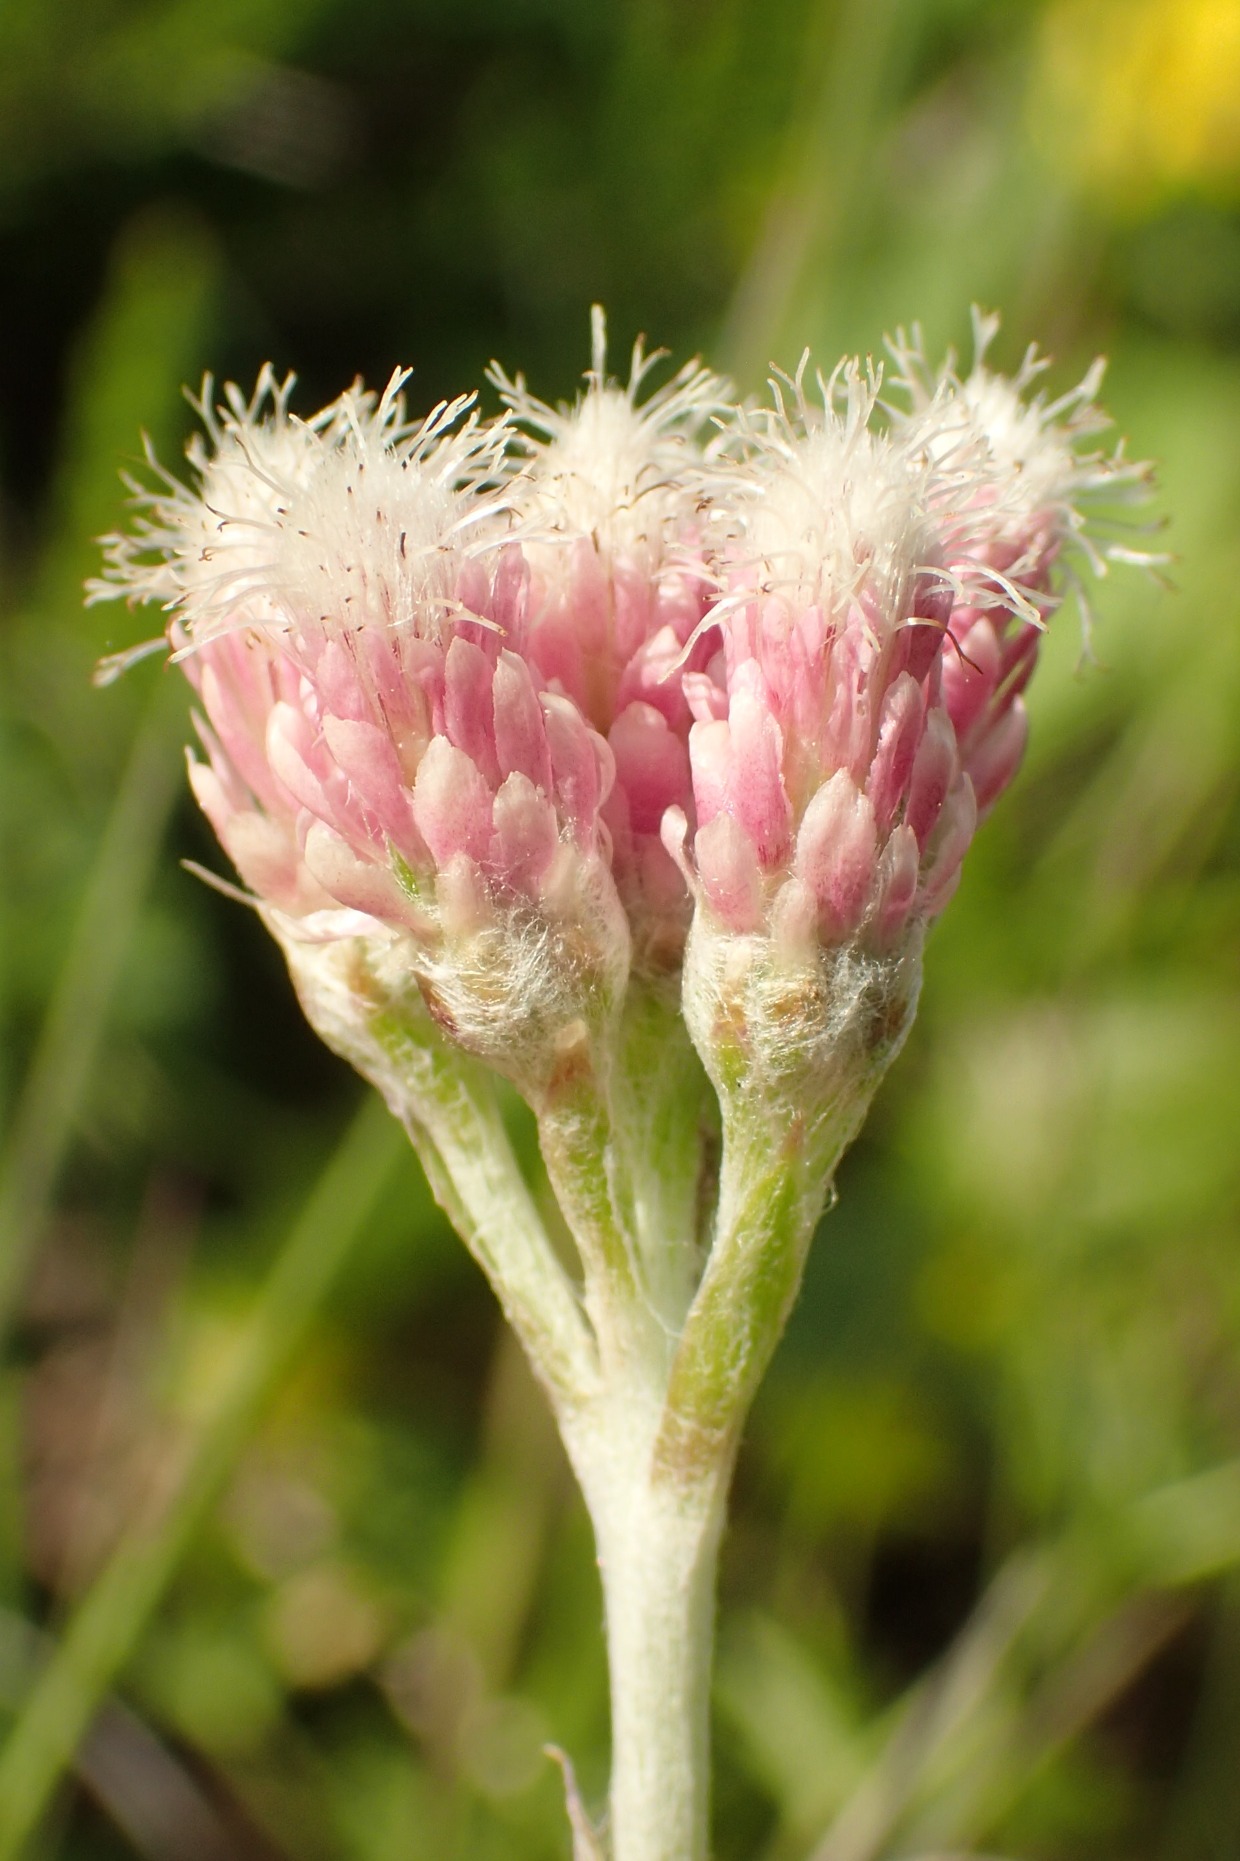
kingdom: Plantae
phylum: Tracheophyta
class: Magnoliopsida
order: Asterales
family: Asteraceae
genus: Antennaria
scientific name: Antennaria dioica
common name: Kattefod
